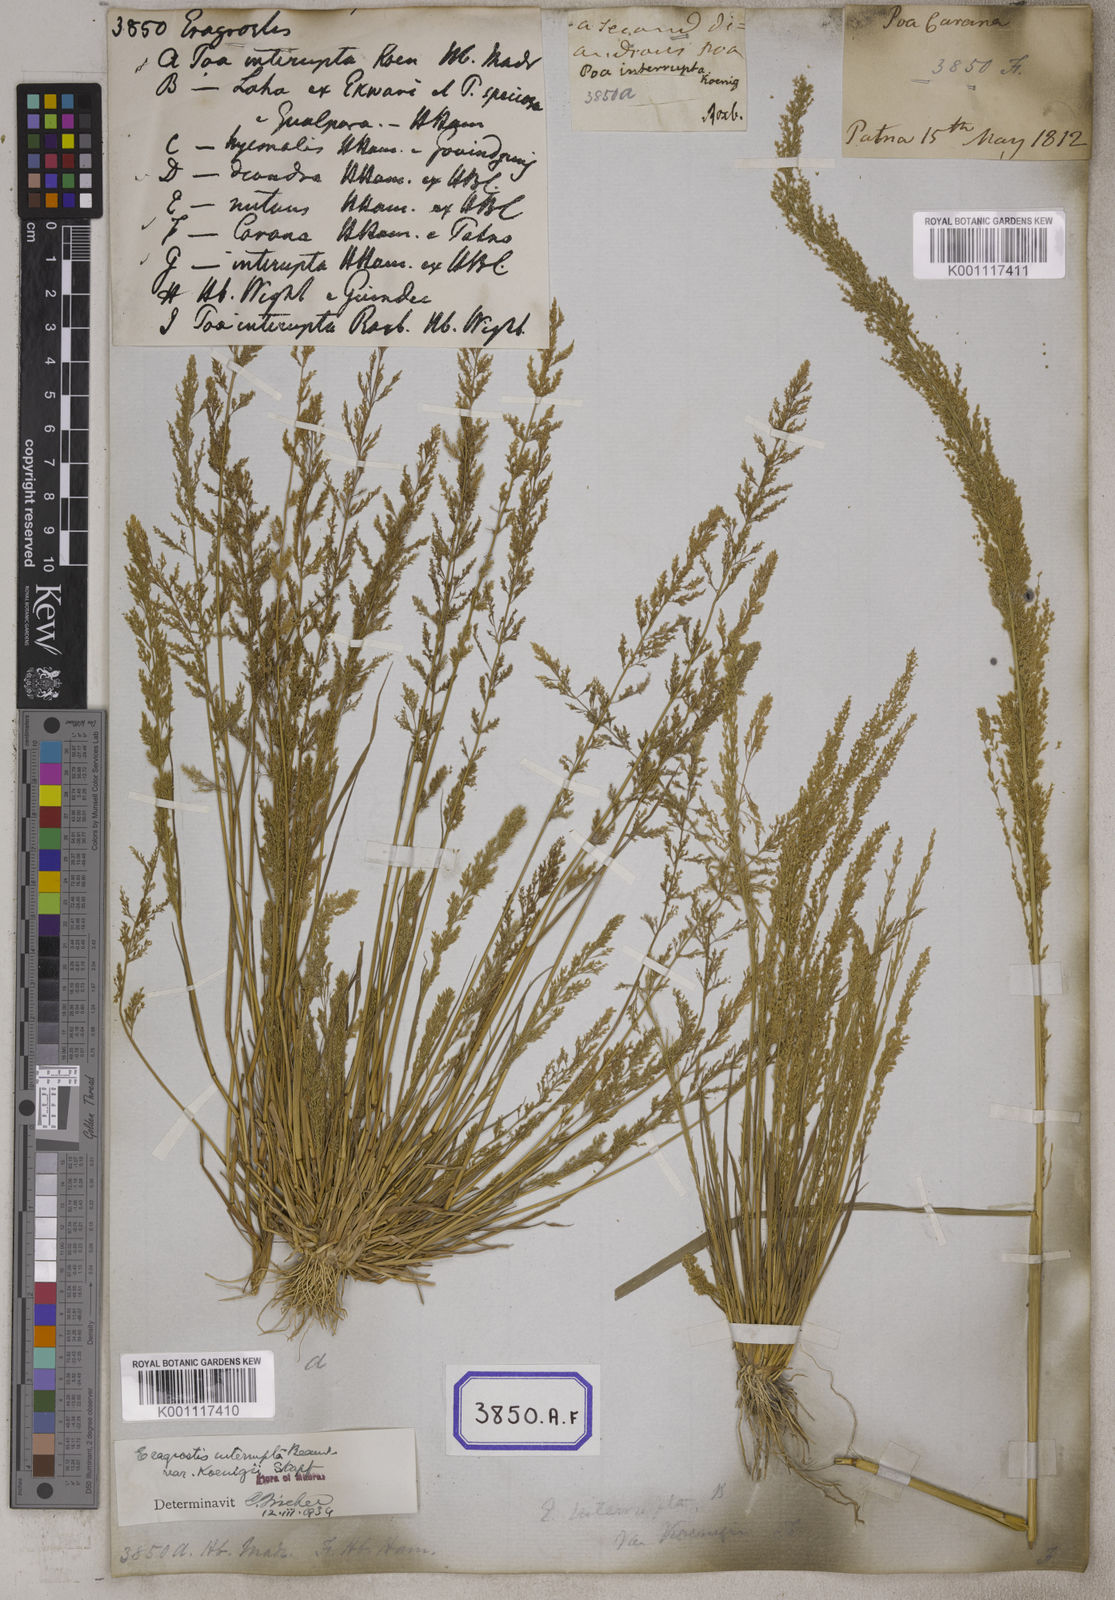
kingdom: Plantae
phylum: Tracheophyta
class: Liliopsida
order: Poales
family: Poaceae
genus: Eragrostis
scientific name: Eragrostis
